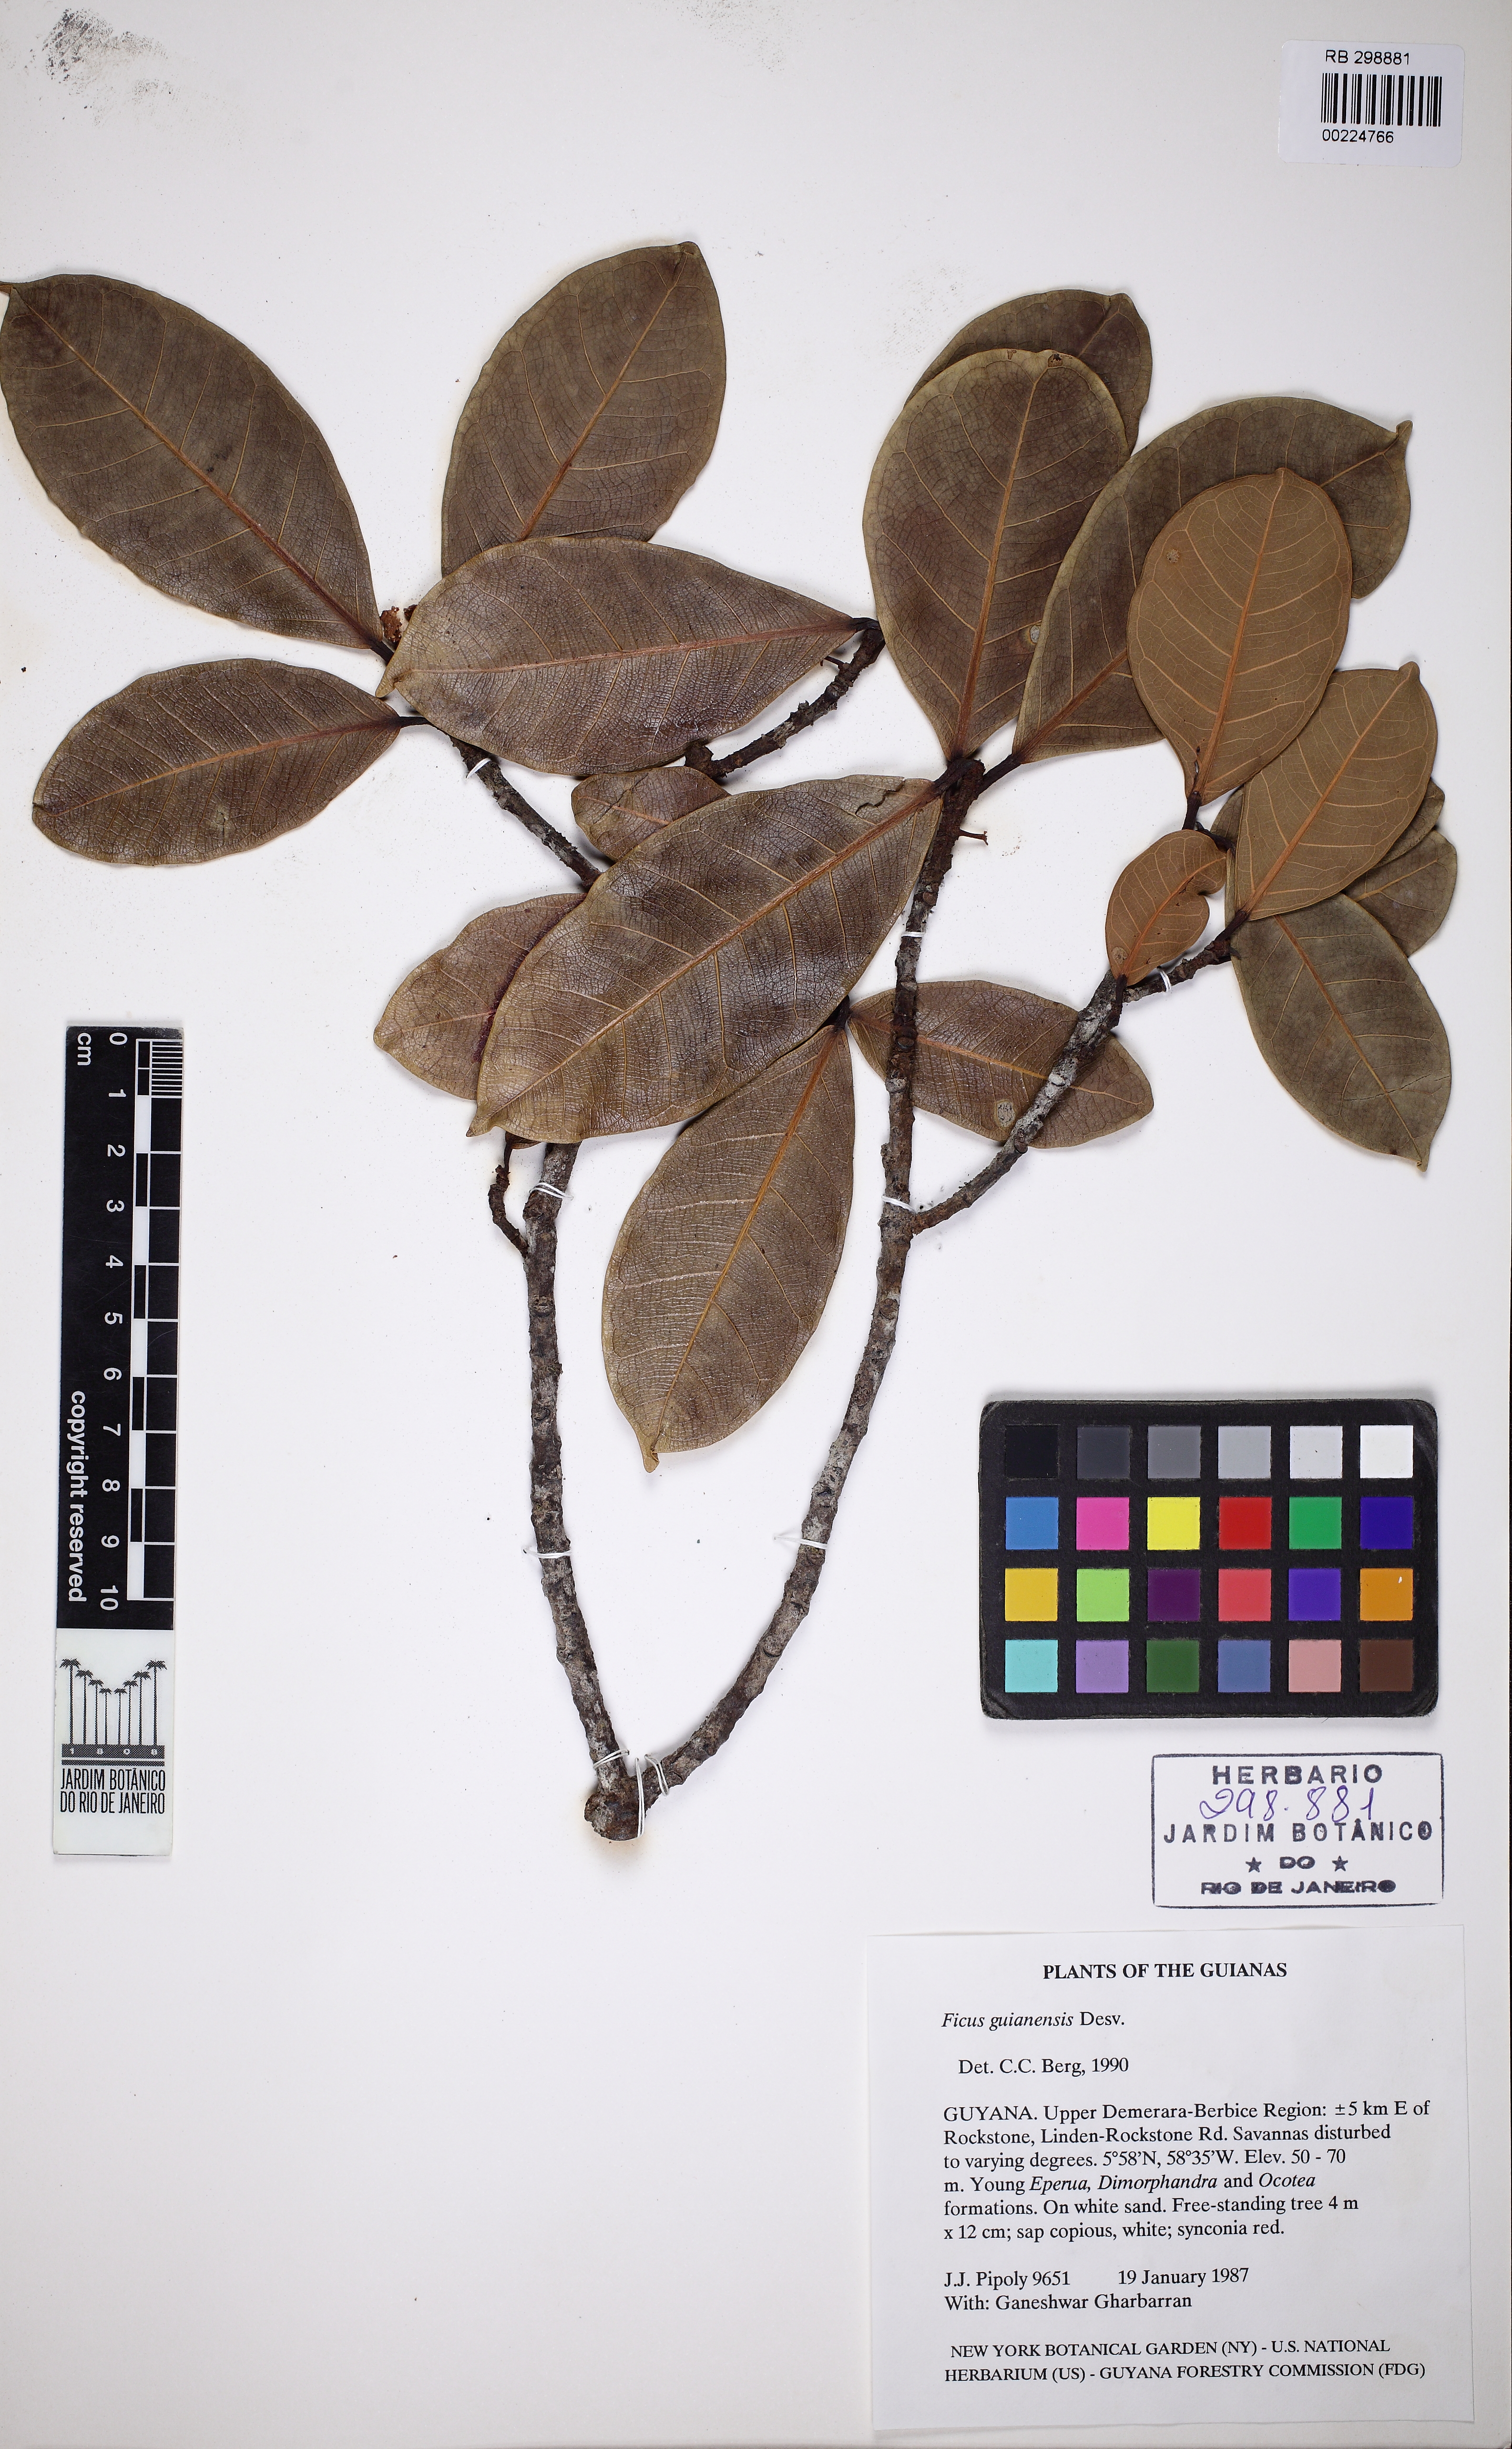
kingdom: Plantae
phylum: Tracheophyta
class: Magnoliopsida
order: Rosales
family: Moraceae
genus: Ficus
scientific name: Ficus americana
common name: Jamaican cherry fig
